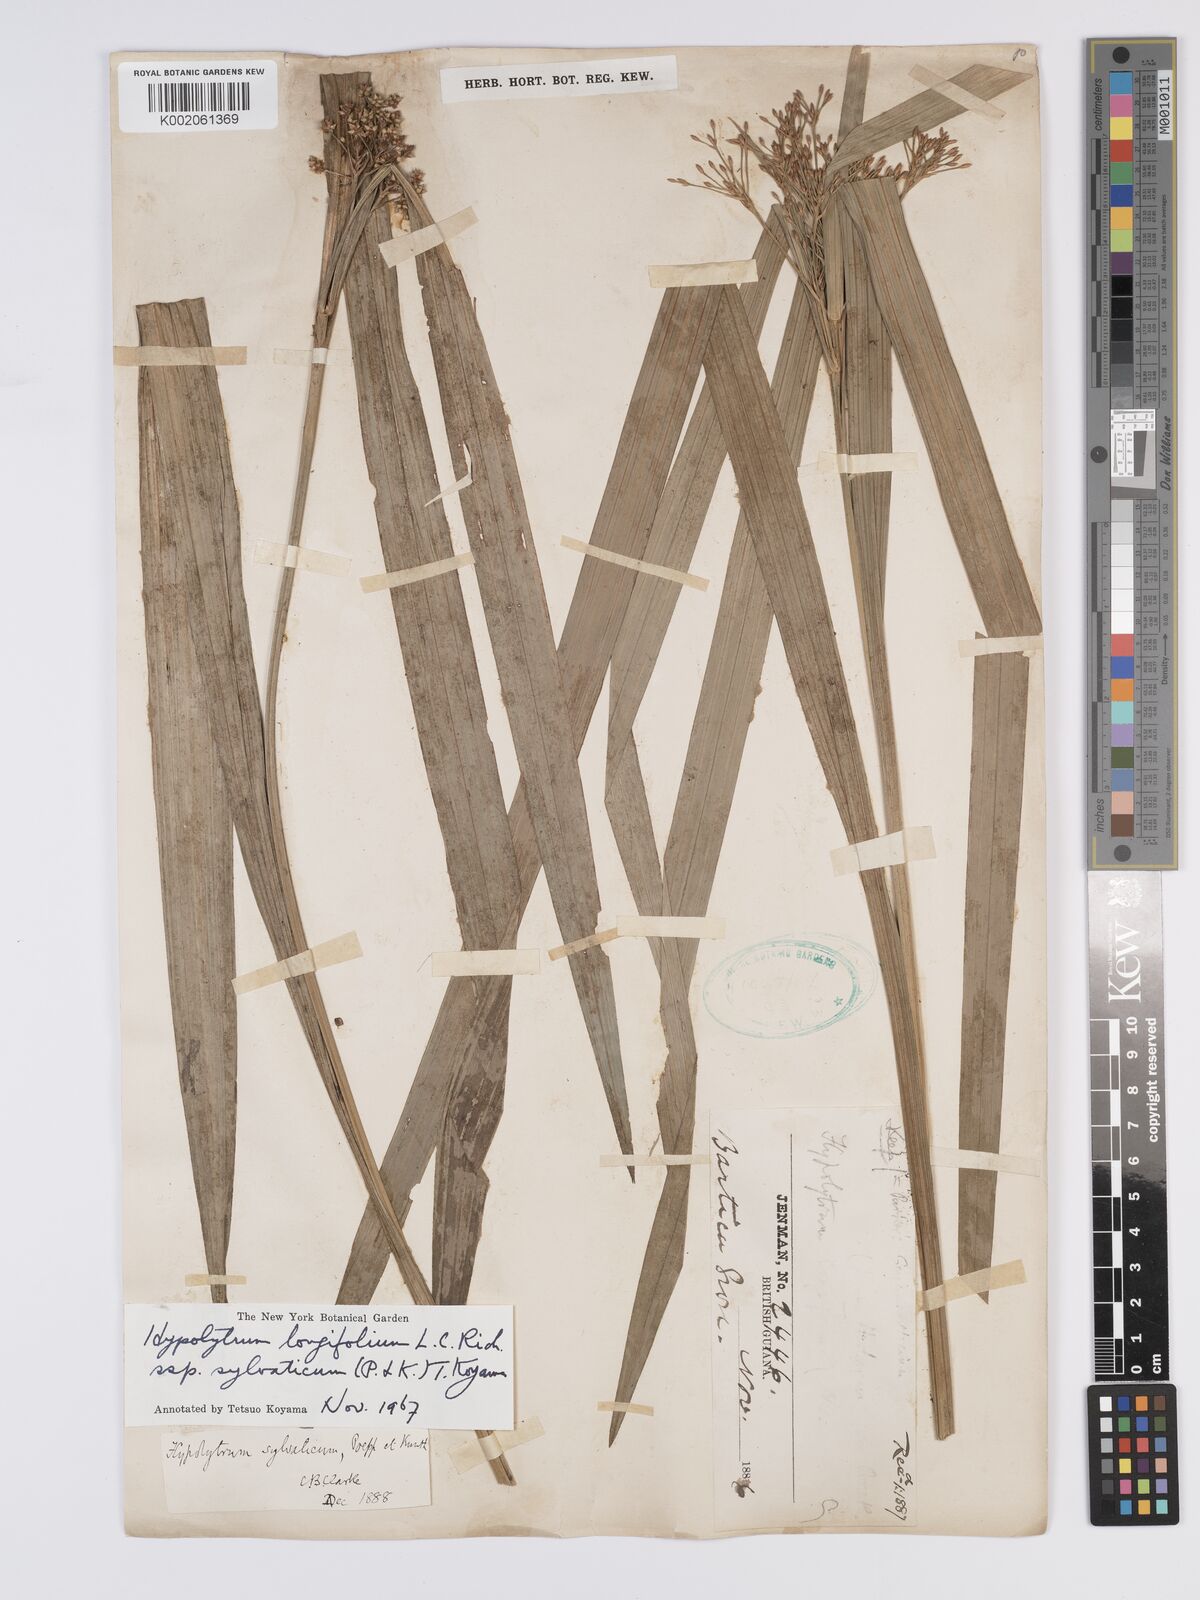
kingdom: Plantae
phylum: Tracheophyta
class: Liliopsida
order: Poales
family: Cyperaceae
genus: Hypolytrum
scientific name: Hypolytrum longifolium
